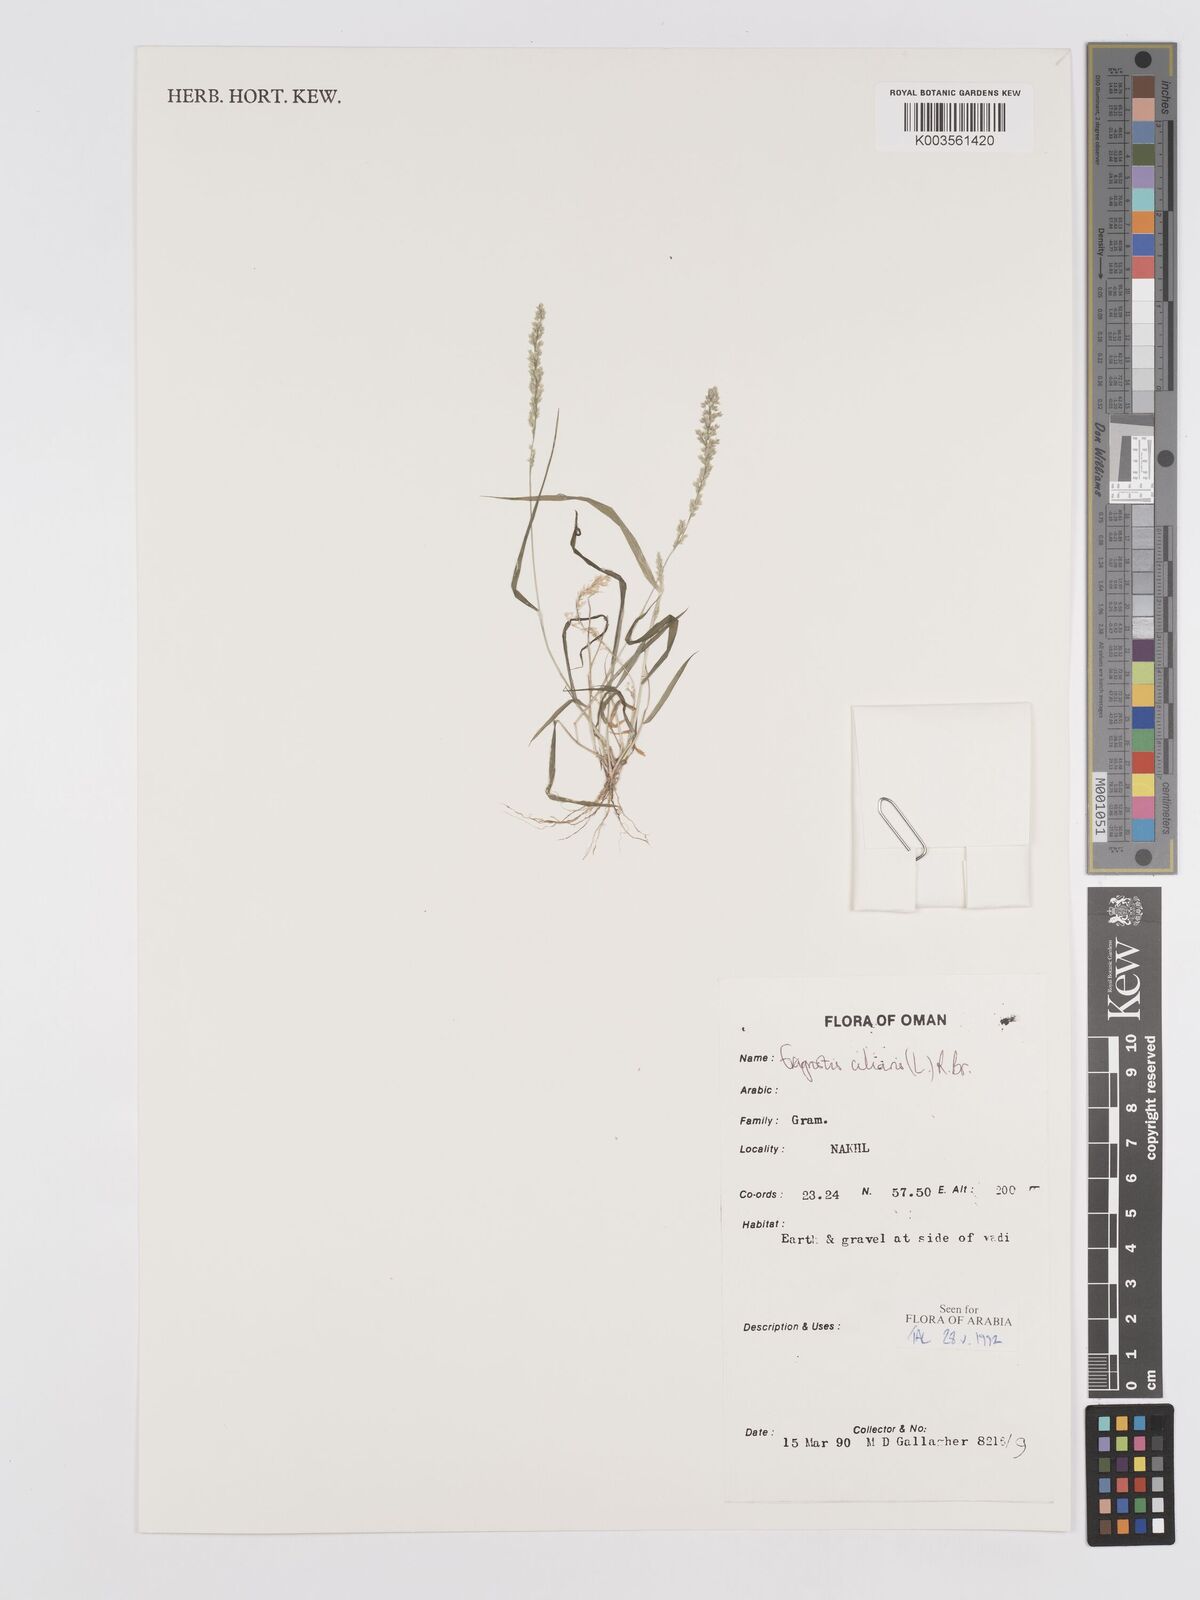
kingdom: Plantae
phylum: Tracheophyta
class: Liliopsida
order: Poales
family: Poaceae
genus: Eragrostis
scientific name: Eragrostis ciliaris
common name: Gophertail lovegrass
